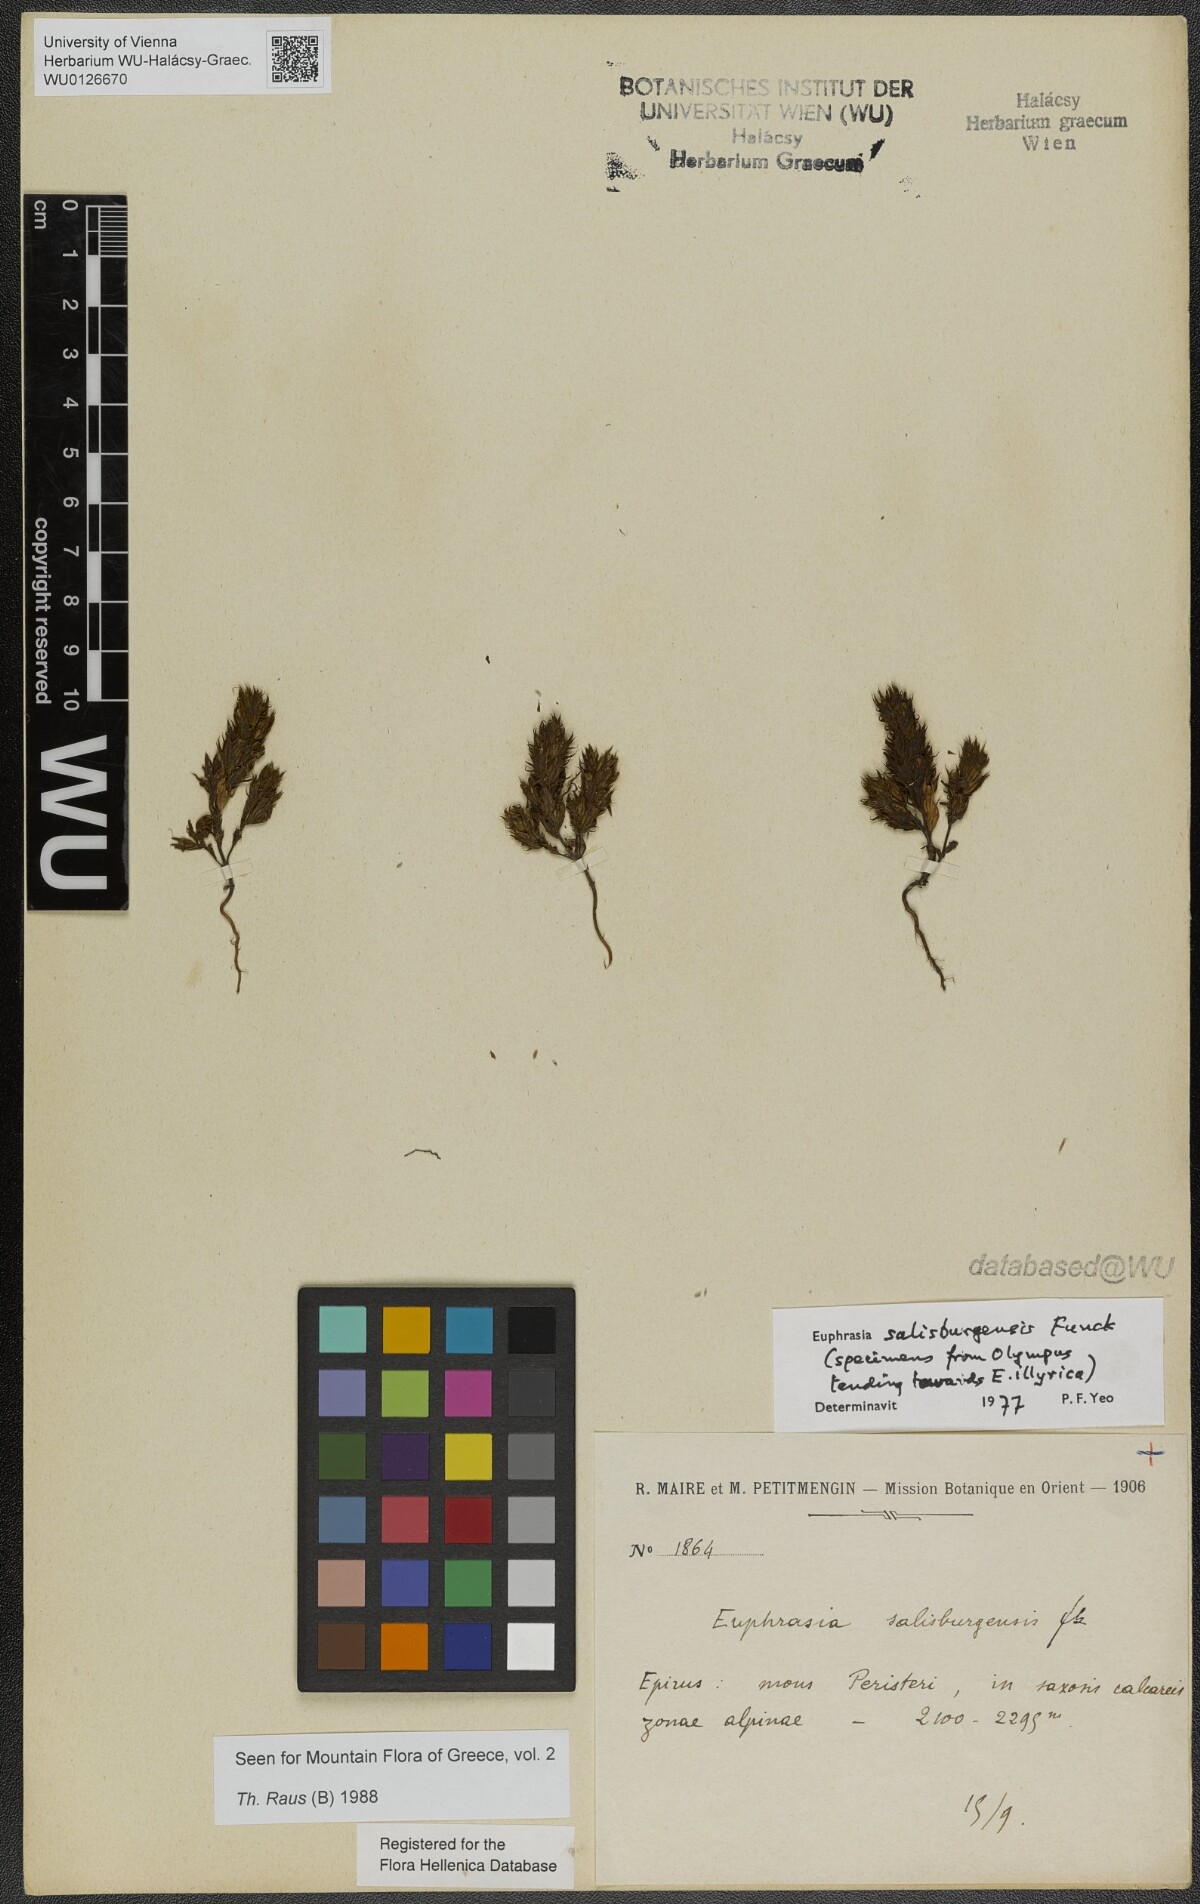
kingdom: Plantae
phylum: Tracheophyta
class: Magnoliopsida
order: Lamiales
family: Orobanchaceae
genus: Euphrasia
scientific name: Euphrasia salisburgensis
